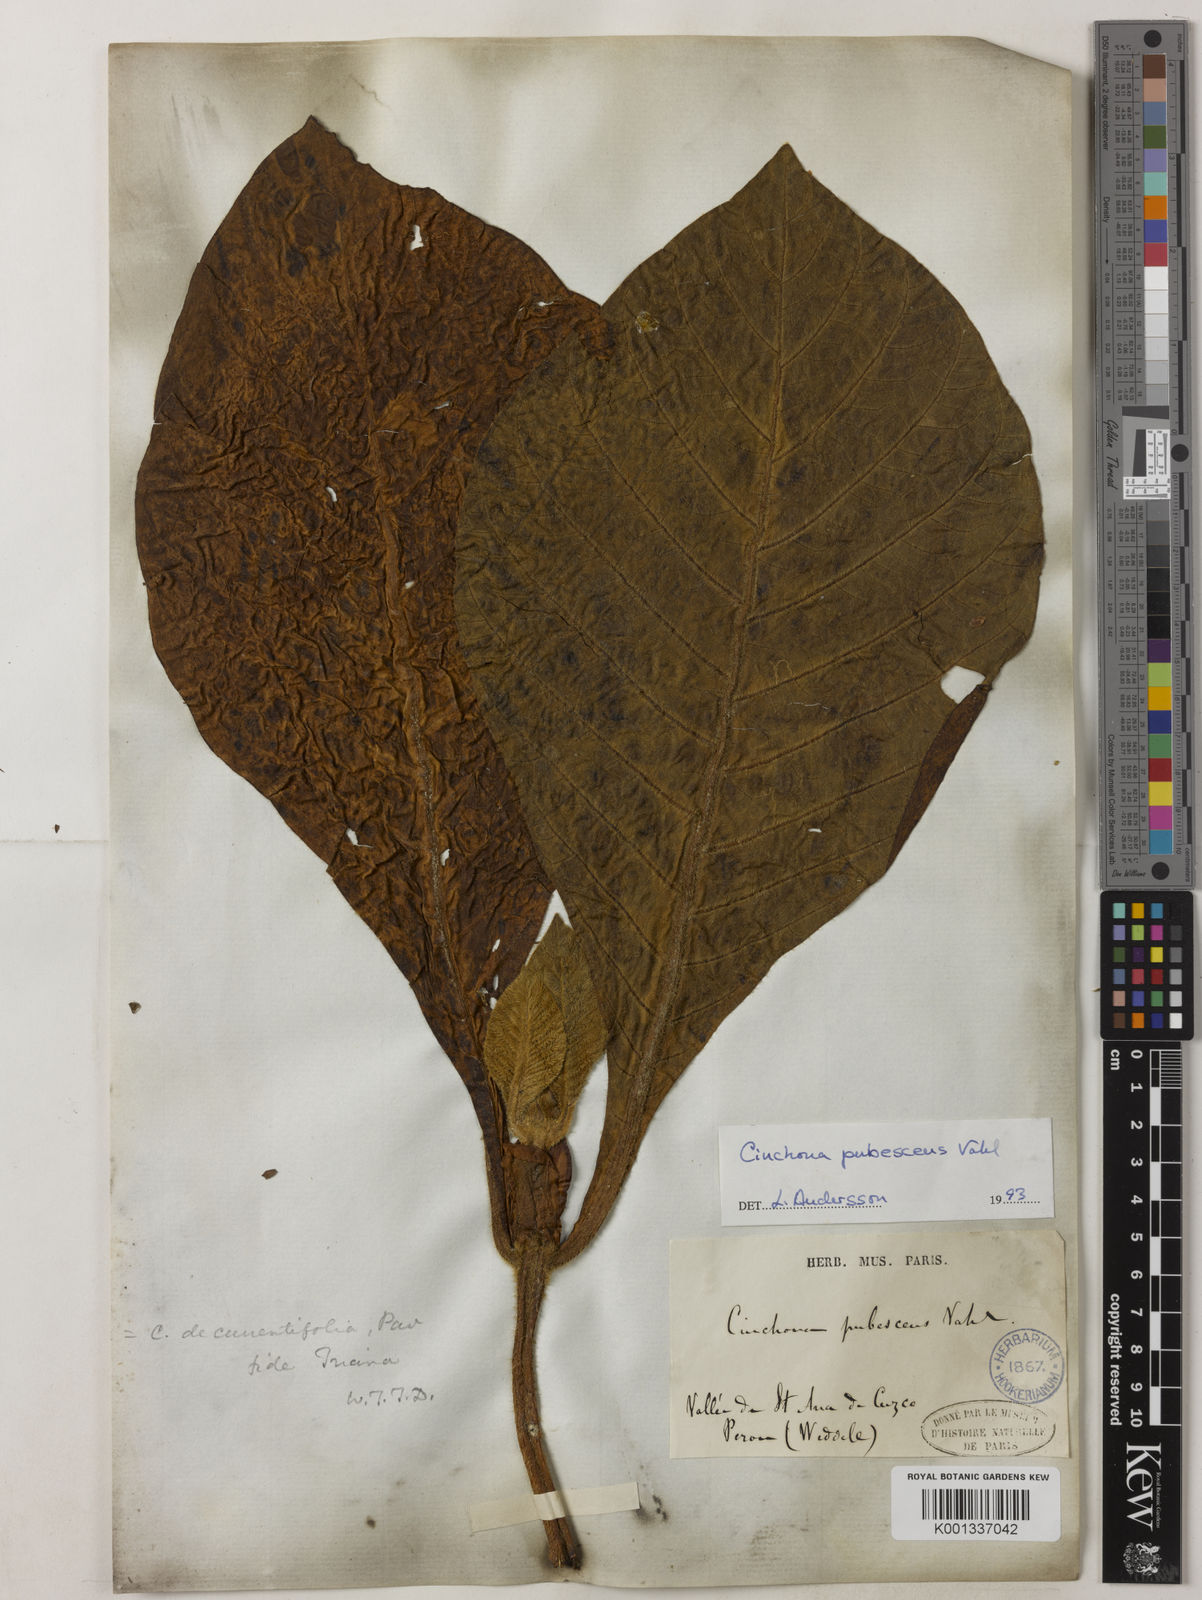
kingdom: Plantae
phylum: Tracheophyta
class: Magnoliopsida
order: Gentianales
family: Rubiaceae
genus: Cinchona
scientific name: Cinchona pubescens
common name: Quinine
